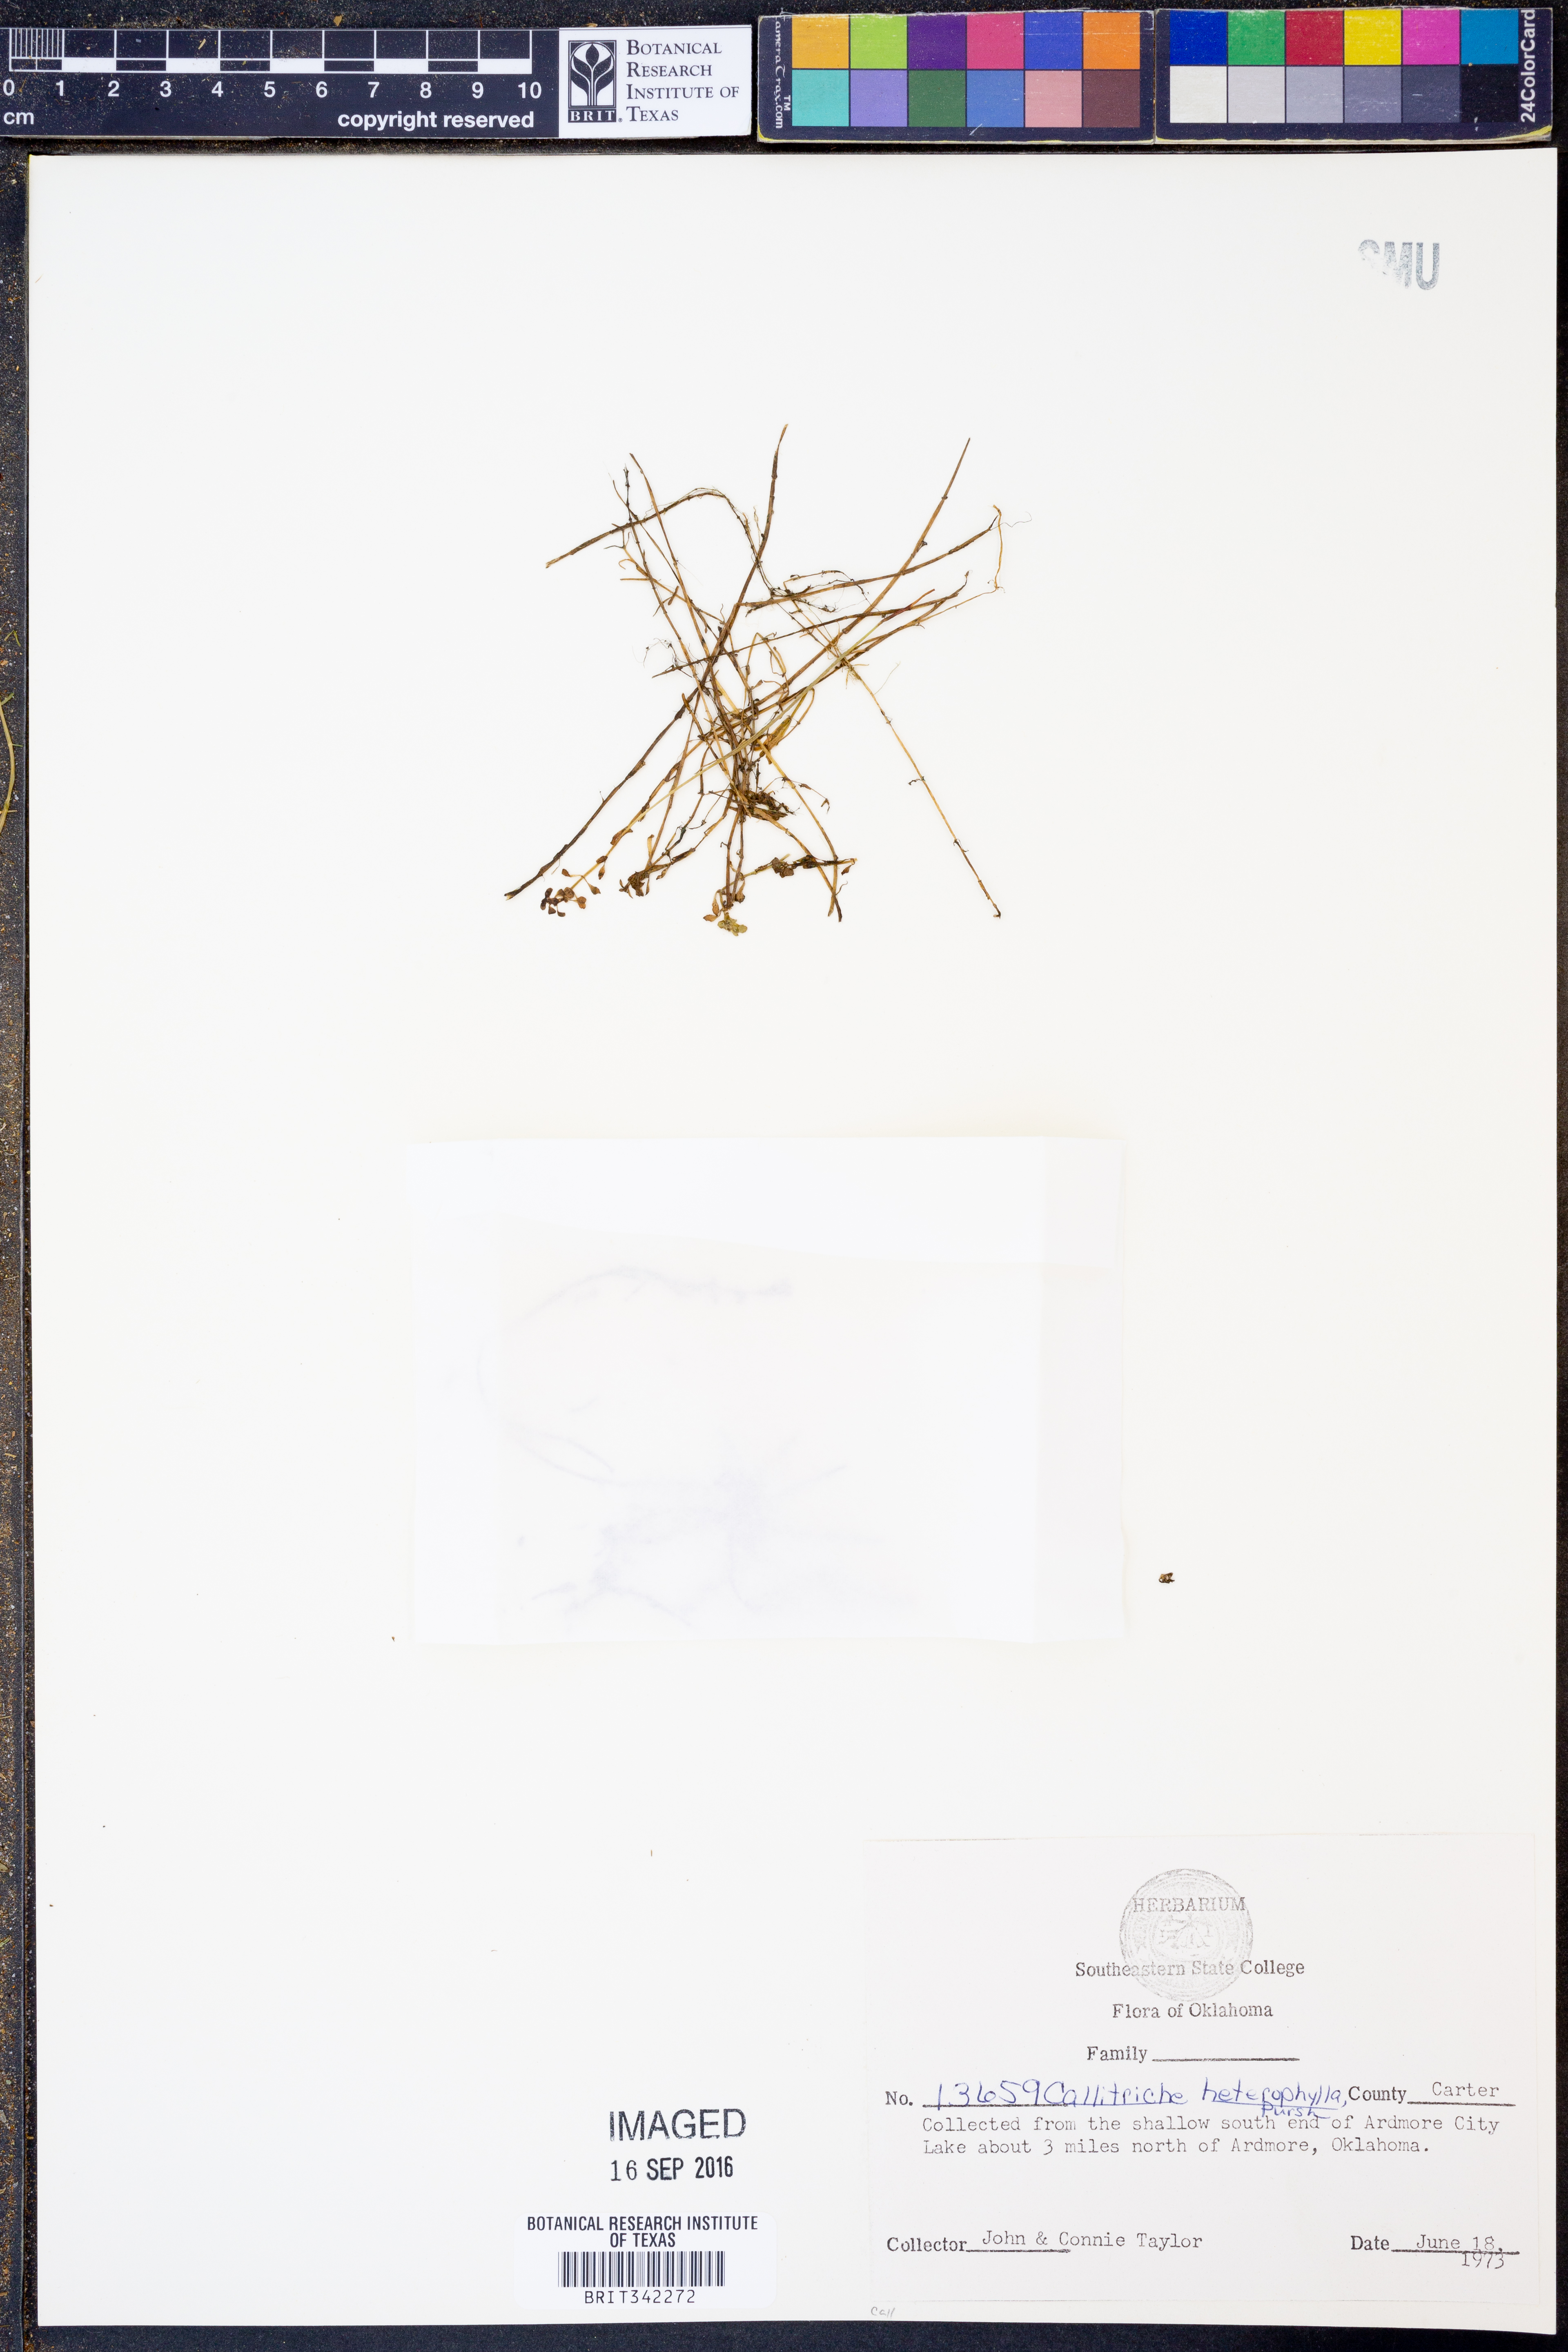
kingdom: Plantae
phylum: Tracheophyta
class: Magnoliopsida
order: Lamiales
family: Plantaginaceae
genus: Callitriche
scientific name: Callitriche heterophylla
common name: Two-headed water-starwort
